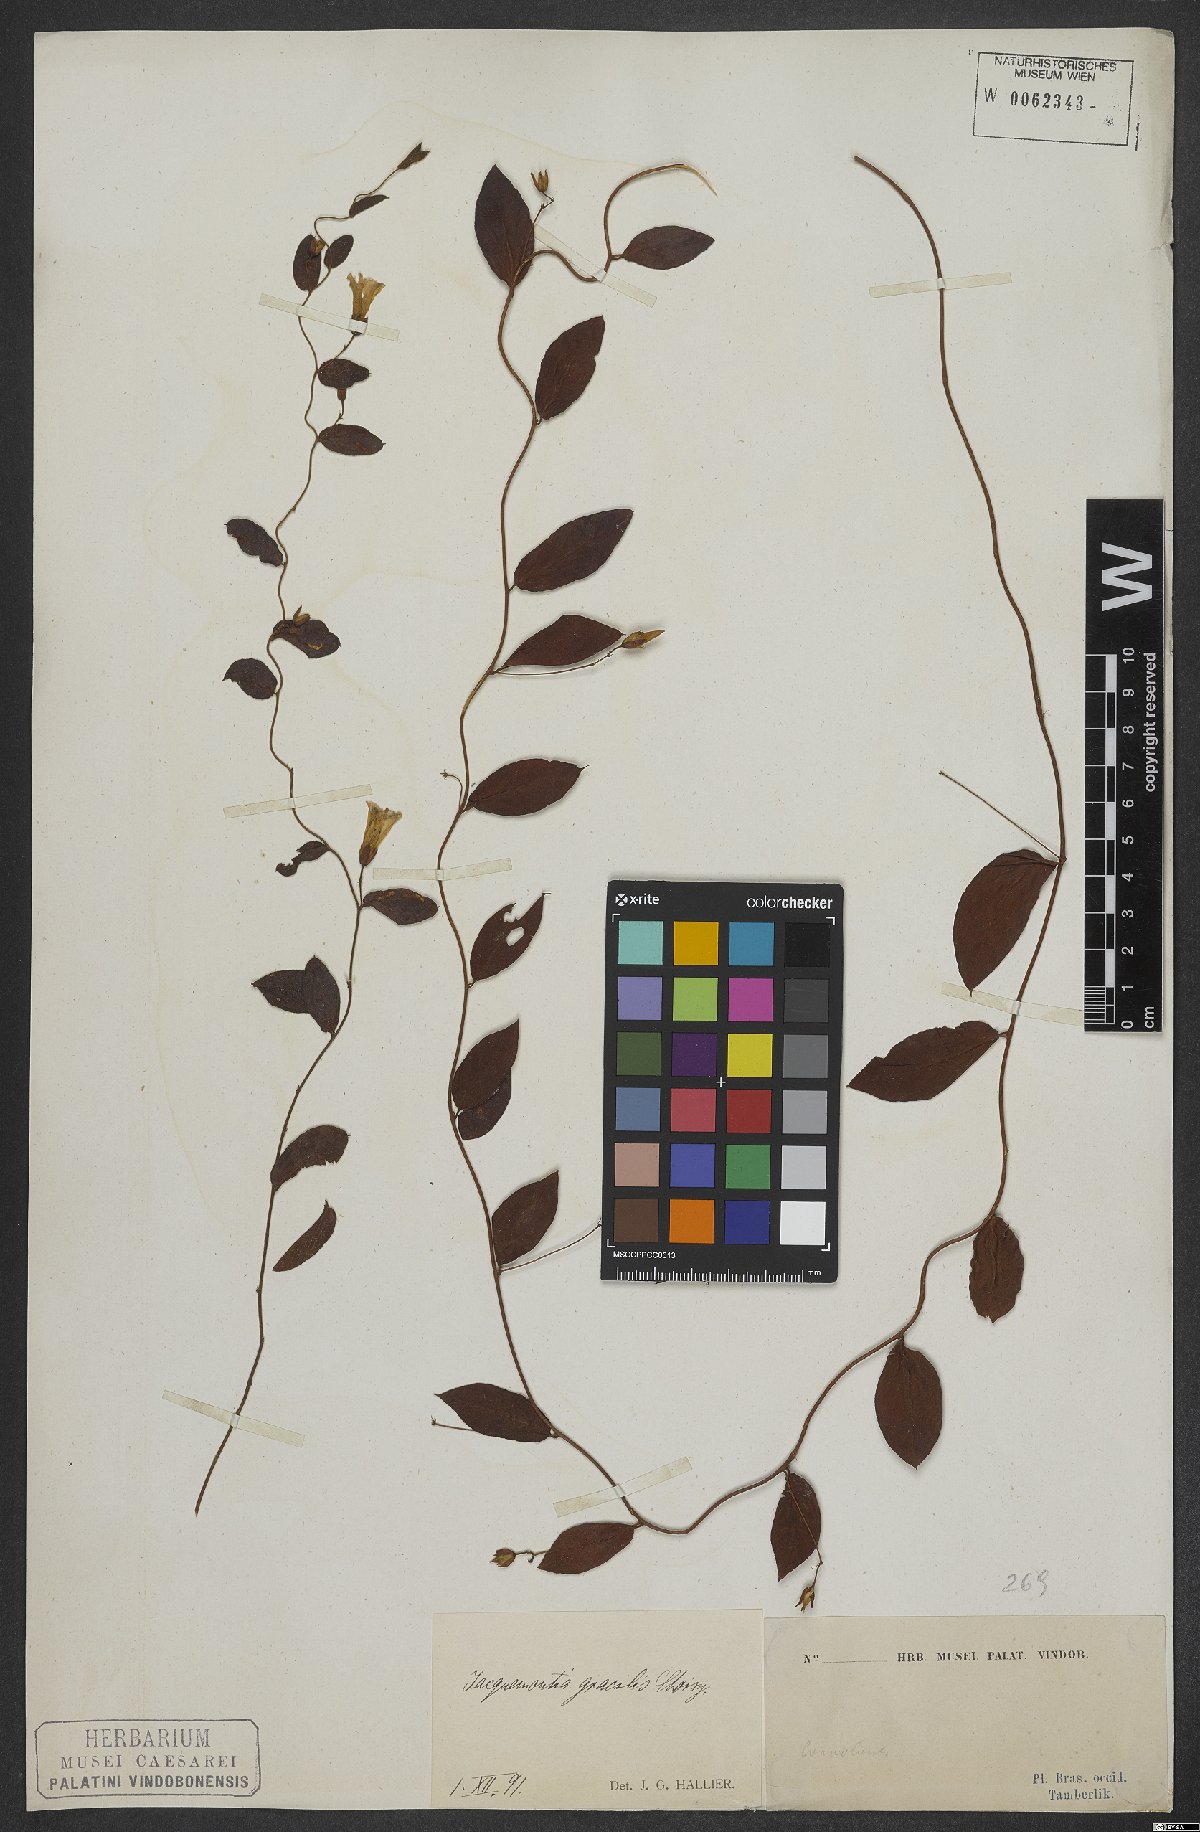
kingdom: Plantae
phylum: Tracheophyta
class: Magnoliopsida
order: Solanales
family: Convolvulaceae
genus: Jacquemontia
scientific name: Jacquemontia gracilis
